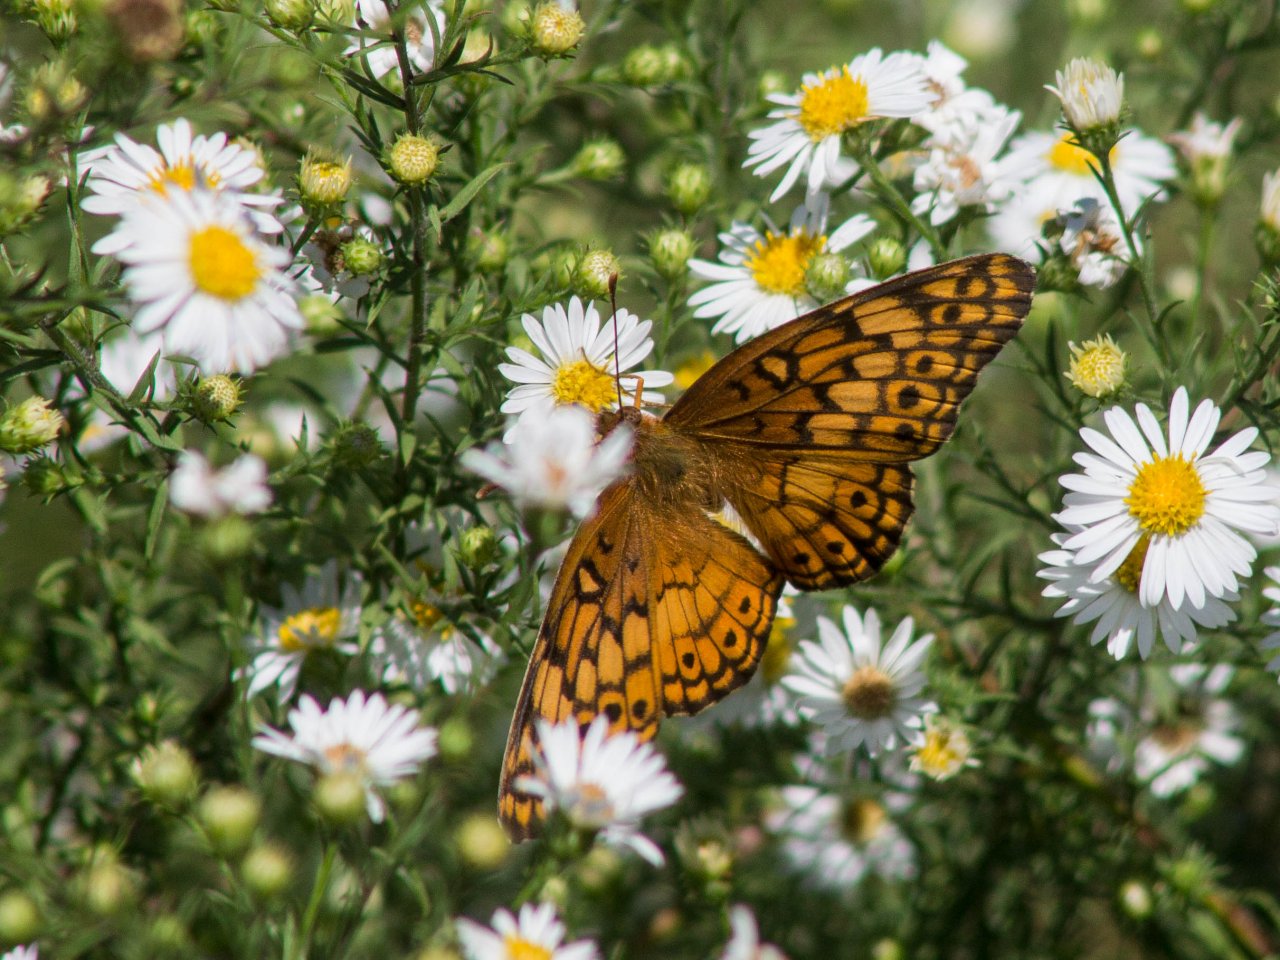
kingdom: Animalia
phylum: Arthropoda
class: Insecta
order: Lepidoptera
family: Nymphalidae
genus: Euptoieta
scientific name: Euptoieta claudia
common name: Variegated Fritillary
